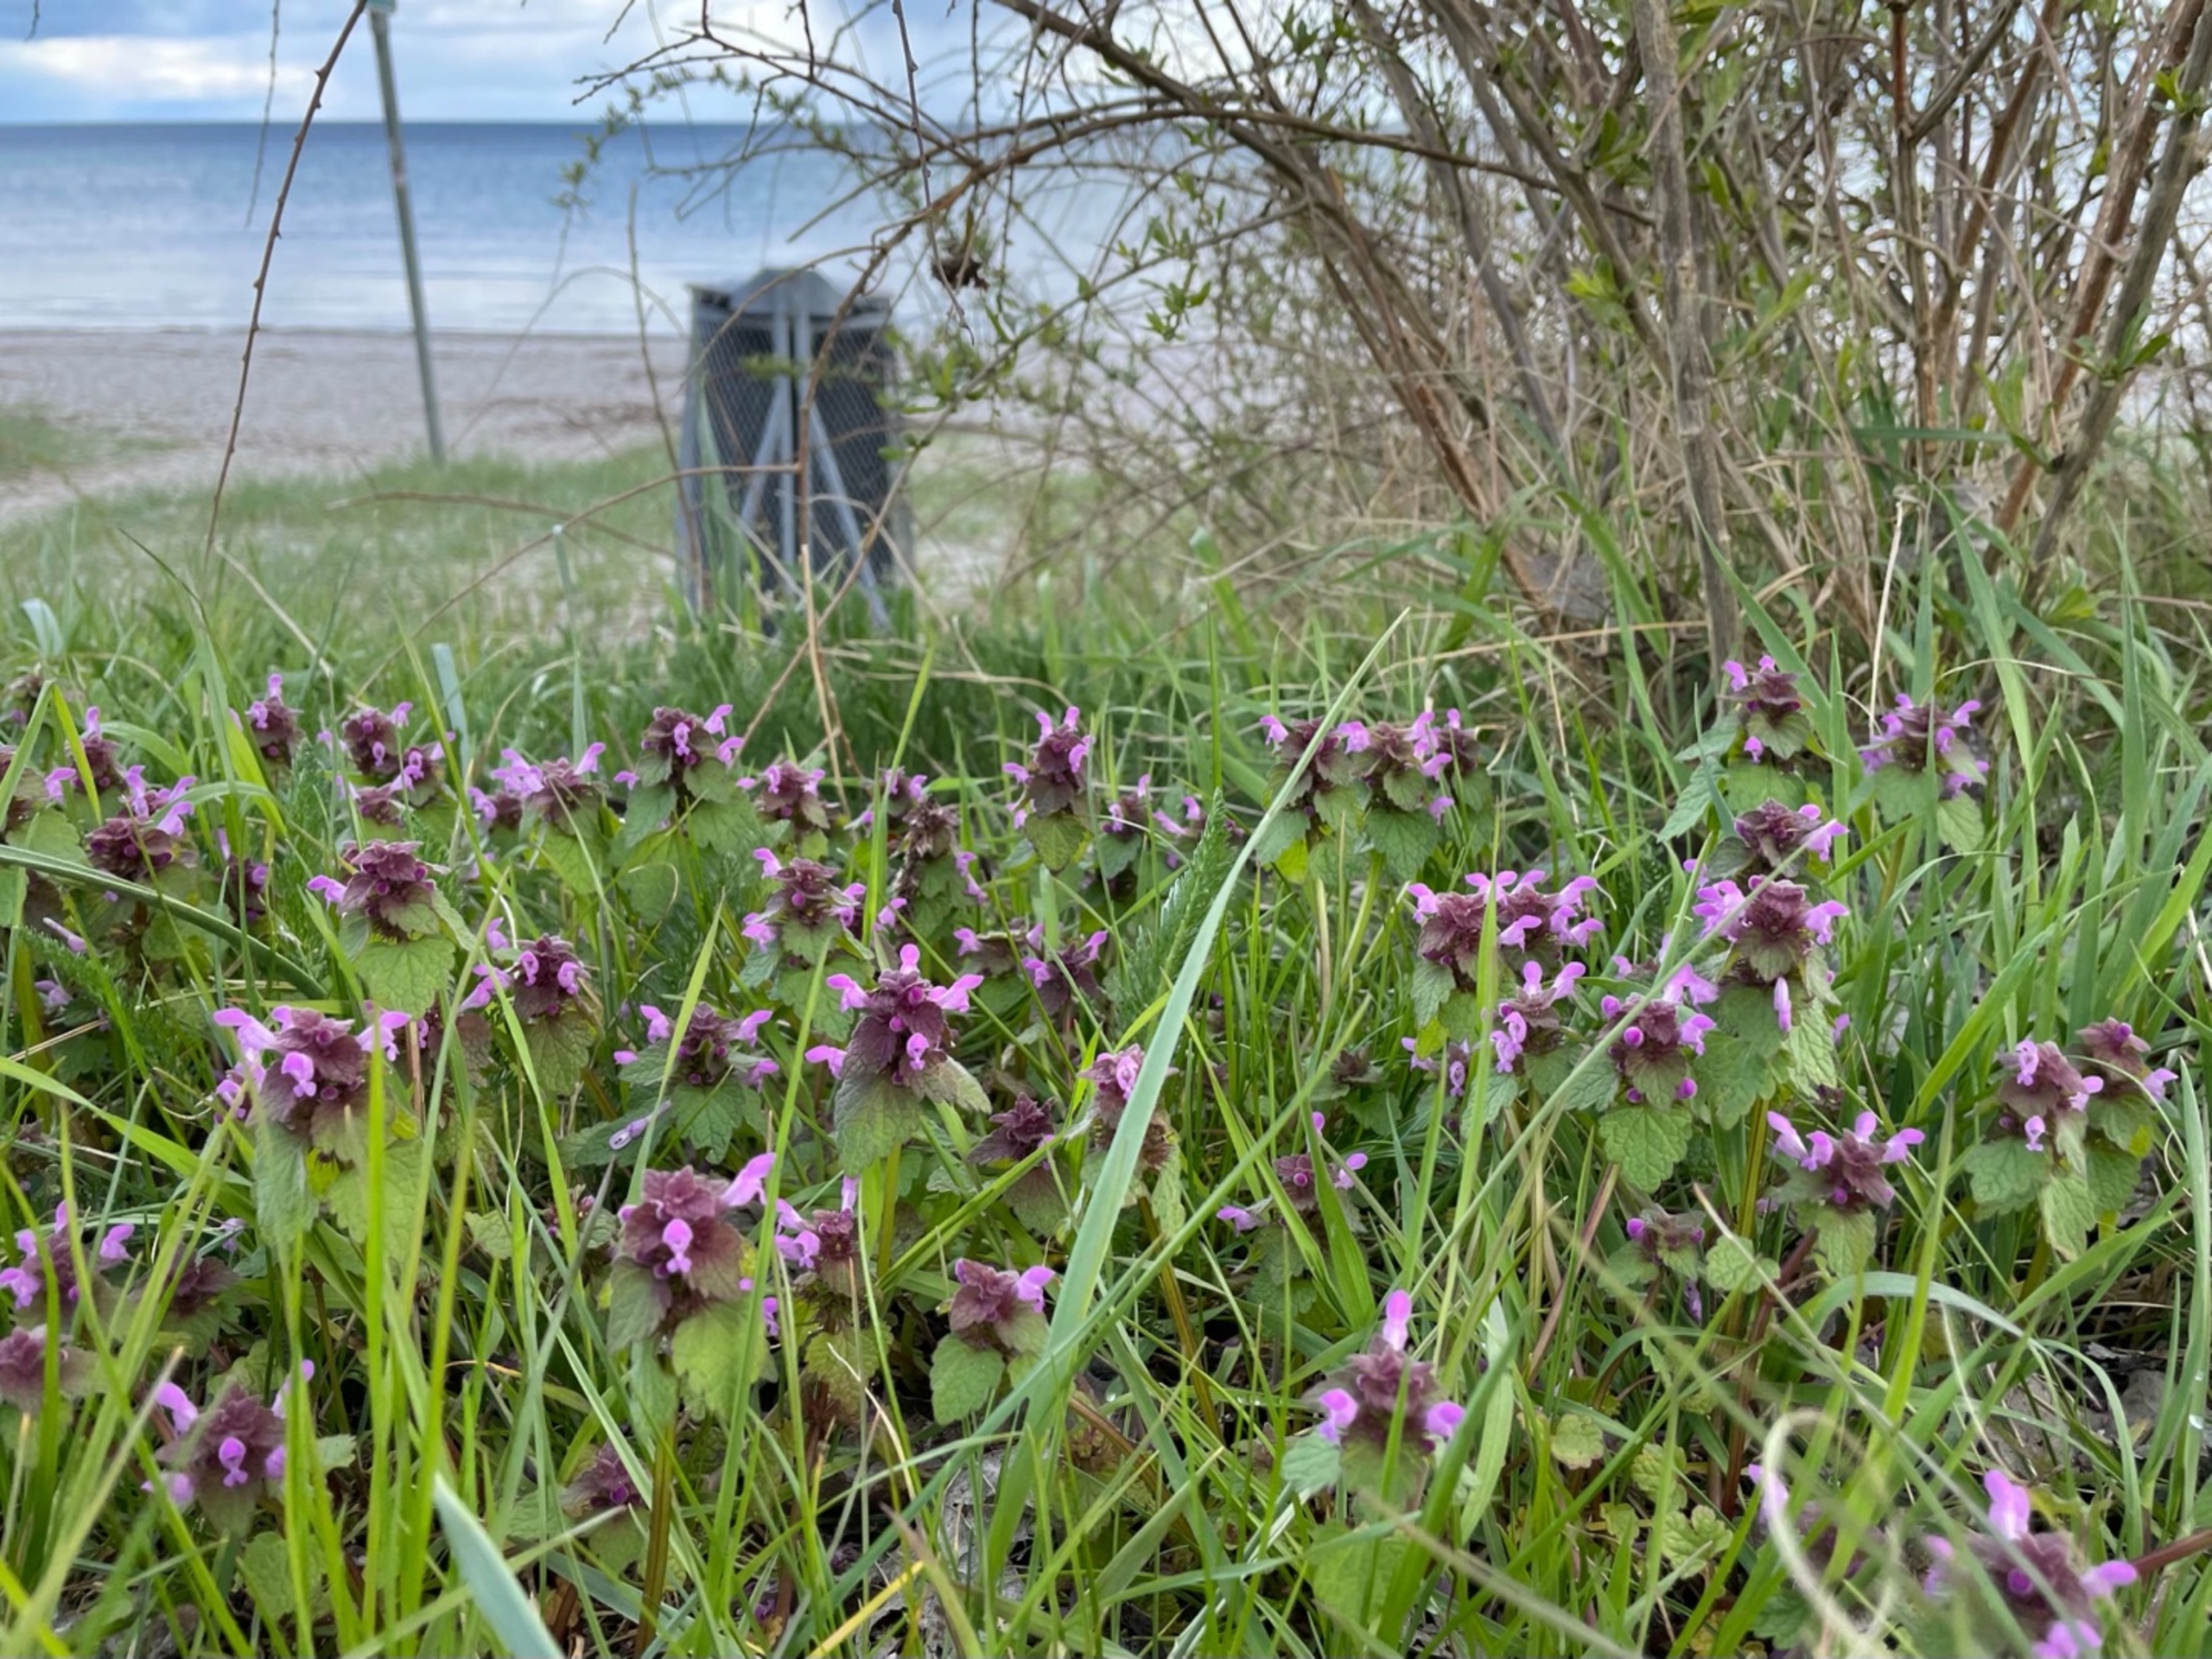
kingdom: Plantae
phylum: Tracheophyta
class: Magnoliopsida
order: Lamiales
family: Lamiaceae
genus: Lamium
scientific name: Lamium purpureum
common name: Rød tvetand
